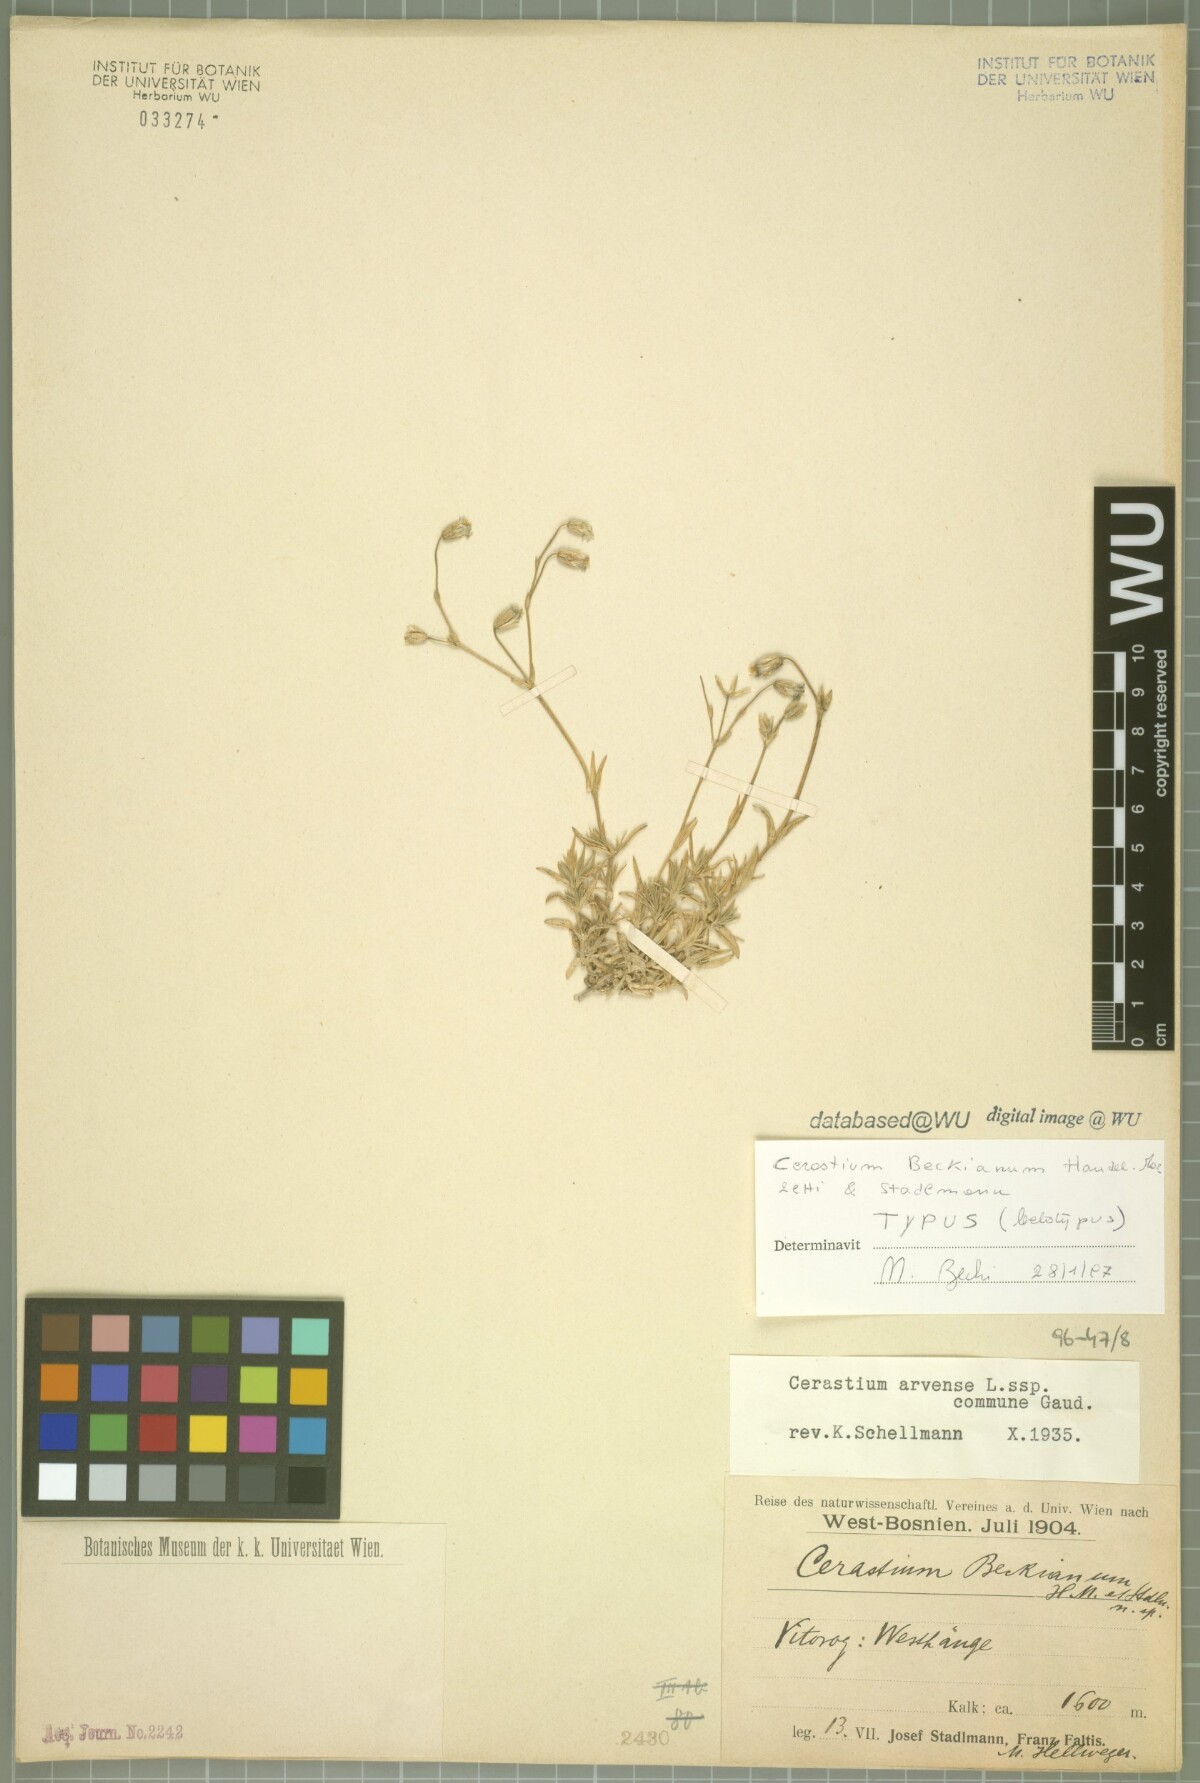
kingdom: Plantae
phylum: Tracheophyta
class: Magnoliopsida
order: Caryophyllales
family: Caryophyllaceae
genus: Cerastium
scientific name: Cerastium arvense
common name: Field mouse-ear
